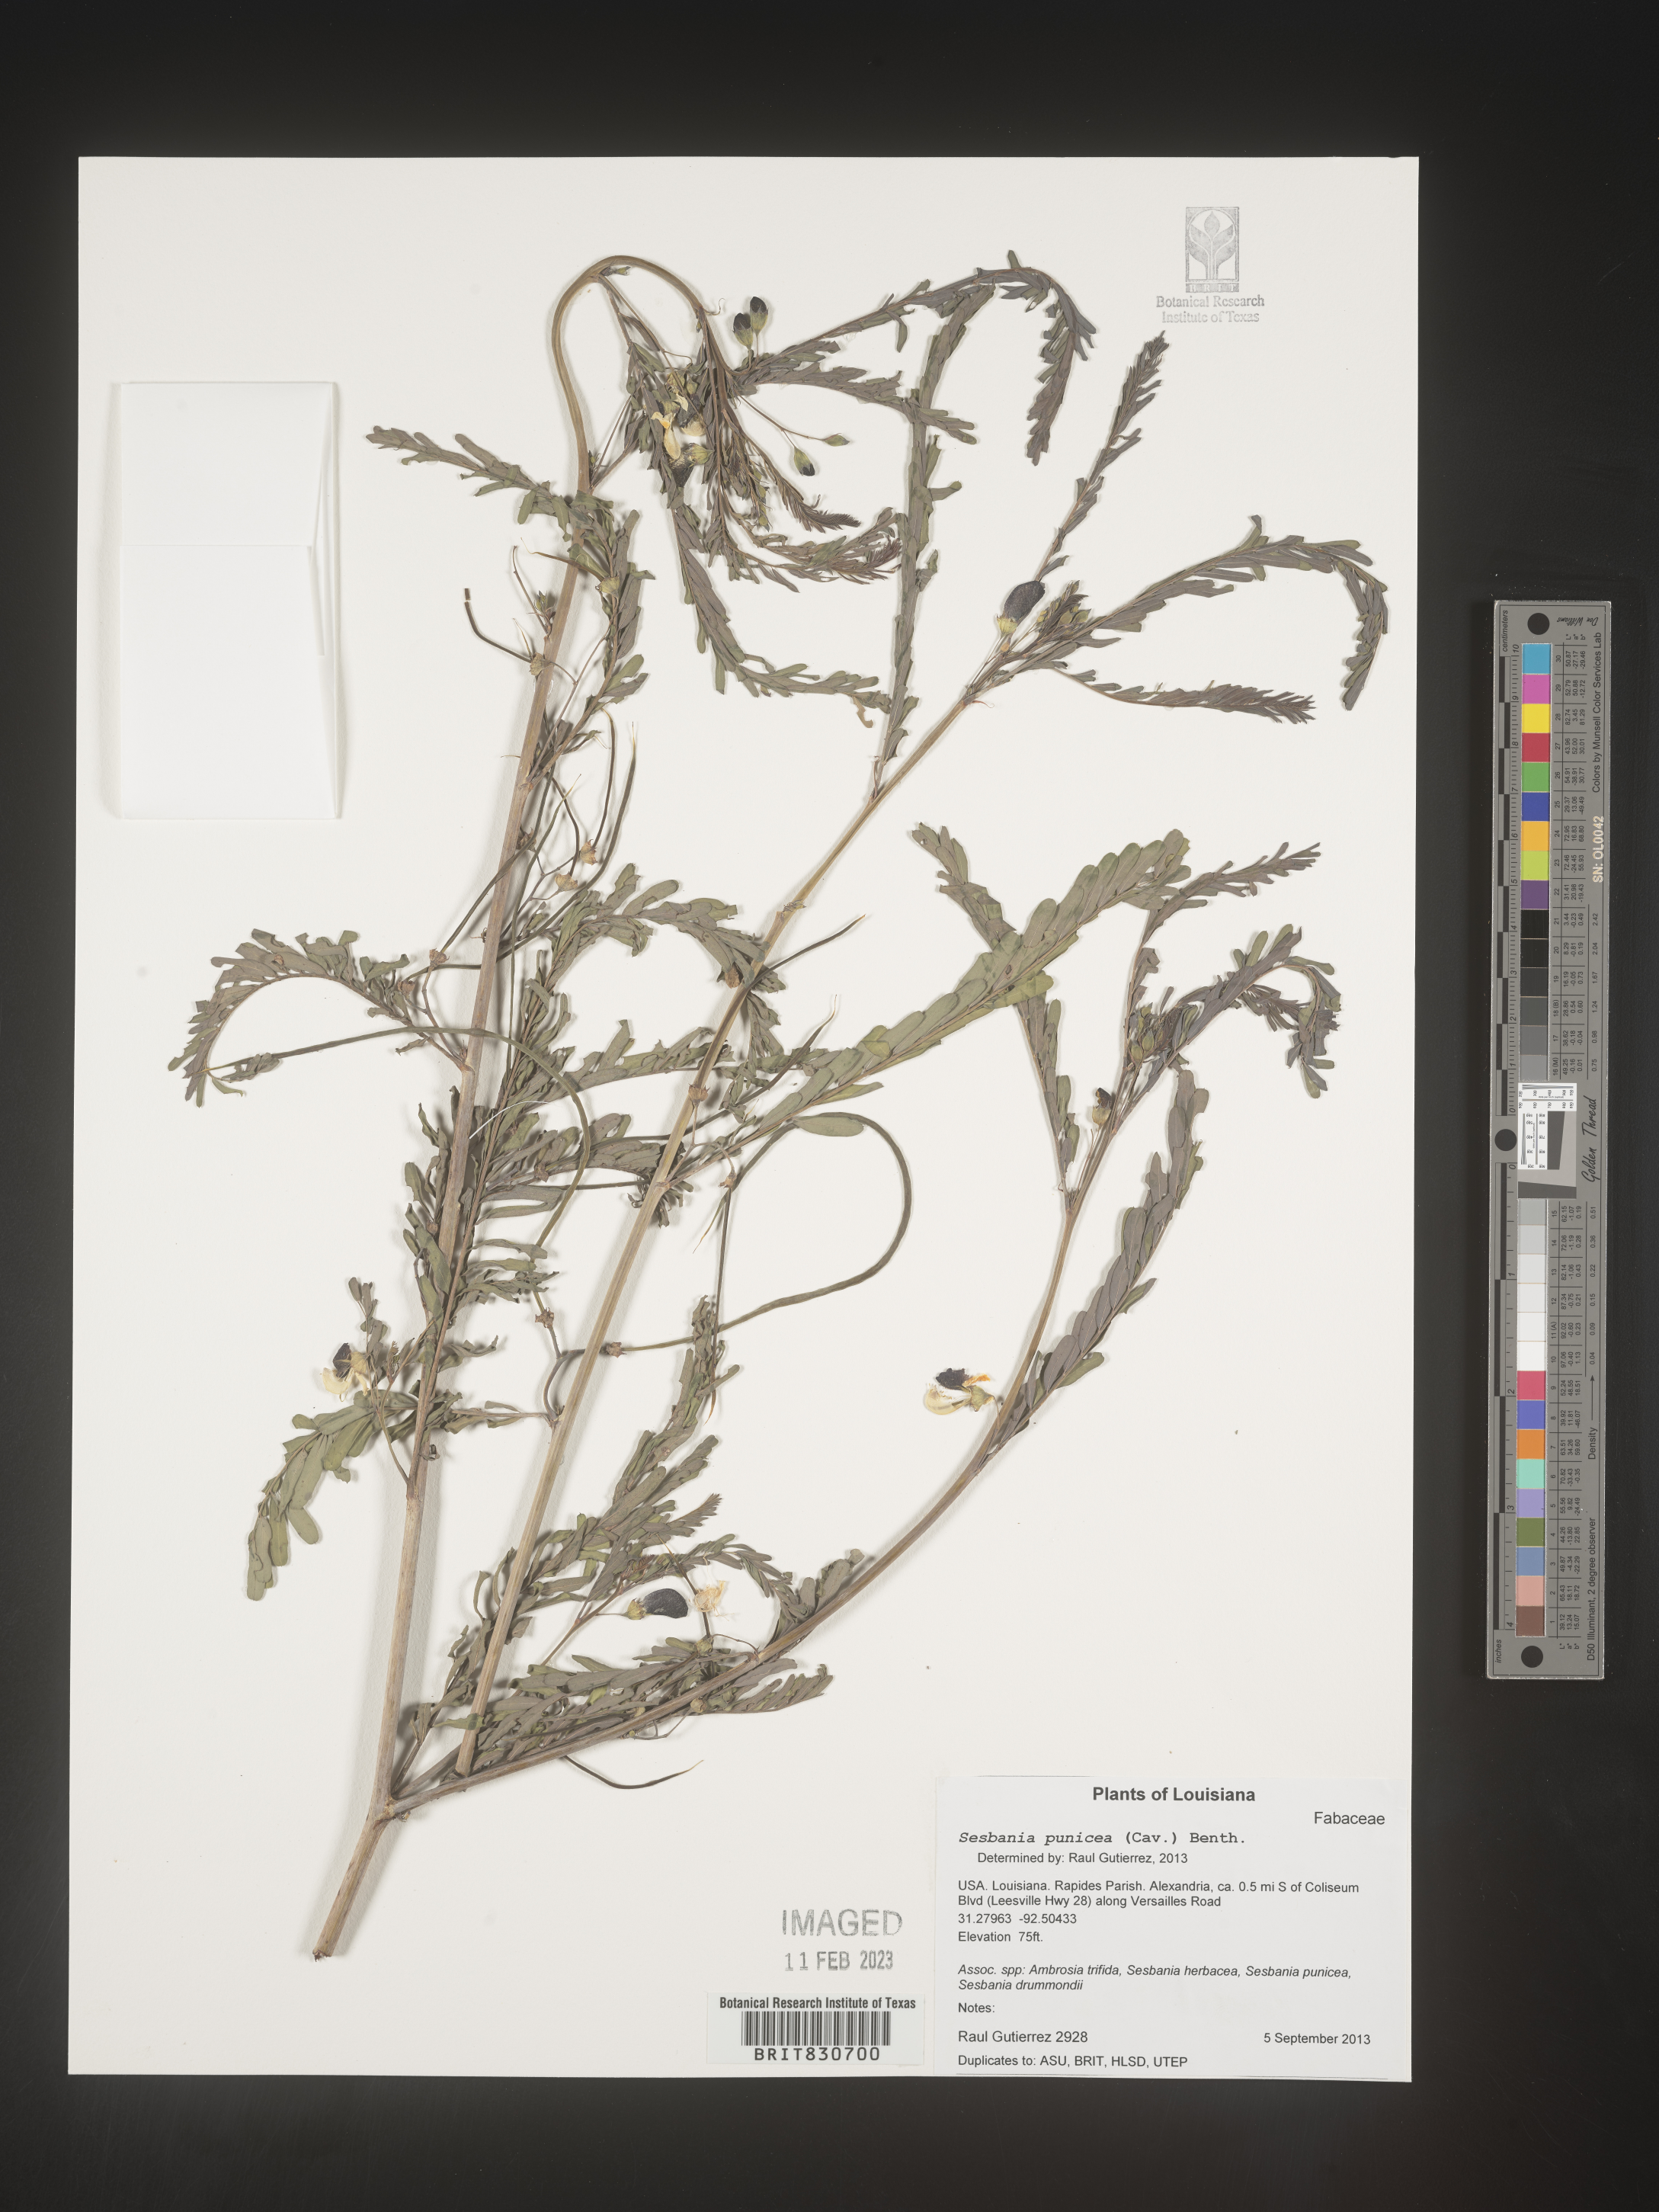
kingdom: Plantae
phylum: Tracheophyta
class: Magnoliopsida
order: Fabales
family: Fabaceae
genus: Sesbania
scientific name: Sesbania punicea
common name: Rattlebox
